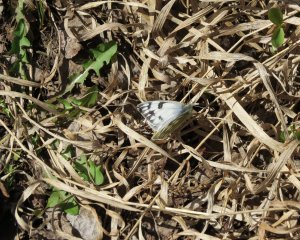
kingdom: Animalia
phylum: Arthropoda
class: Insecta
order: Lepidoptera
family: Pieridae
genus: Pontia
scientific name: Pontia occidentalis
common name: Western White
